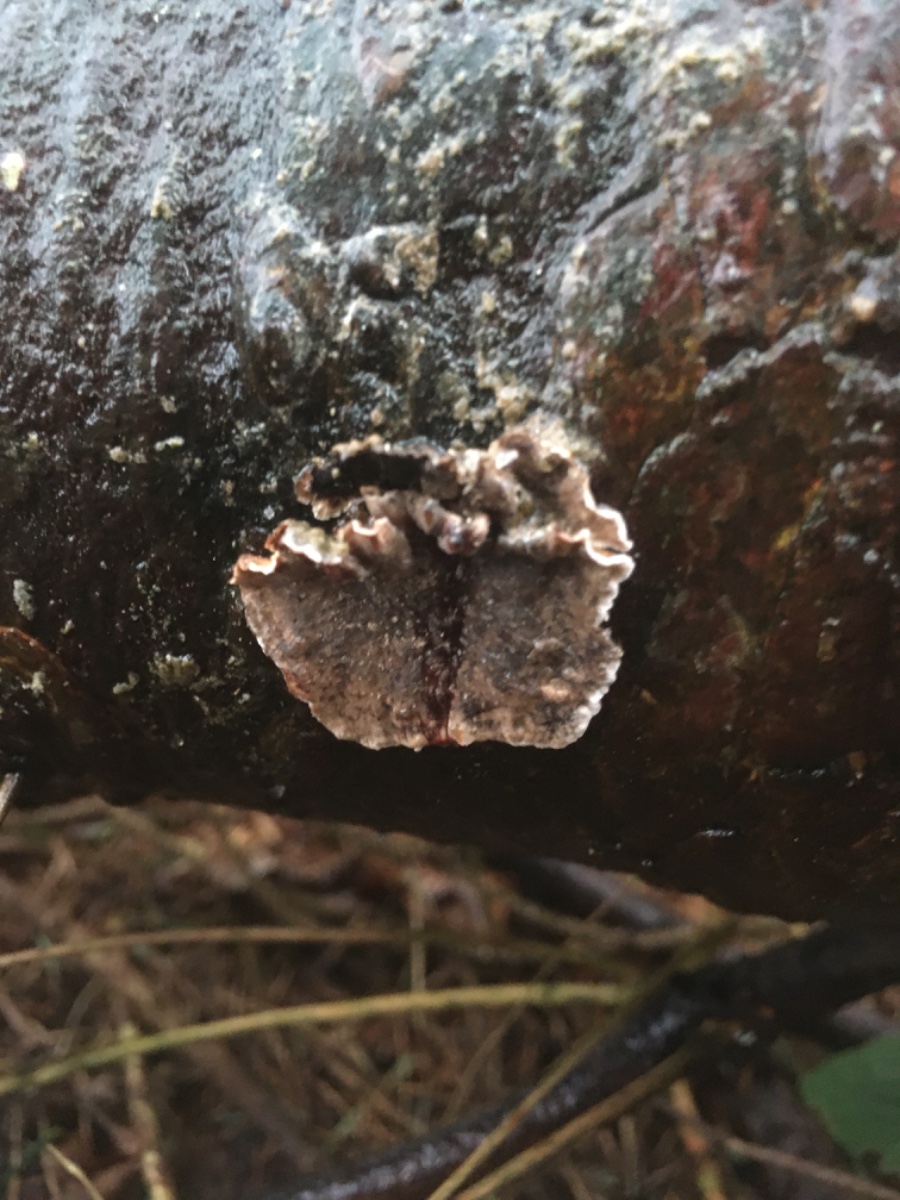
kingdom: Fungi
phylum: Basidiomycota
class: Agaricomycetes
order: Russulales
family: Stereaceae
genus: Stereum
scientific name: Stereum sanguinolentum
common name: blødende lædersvamp
